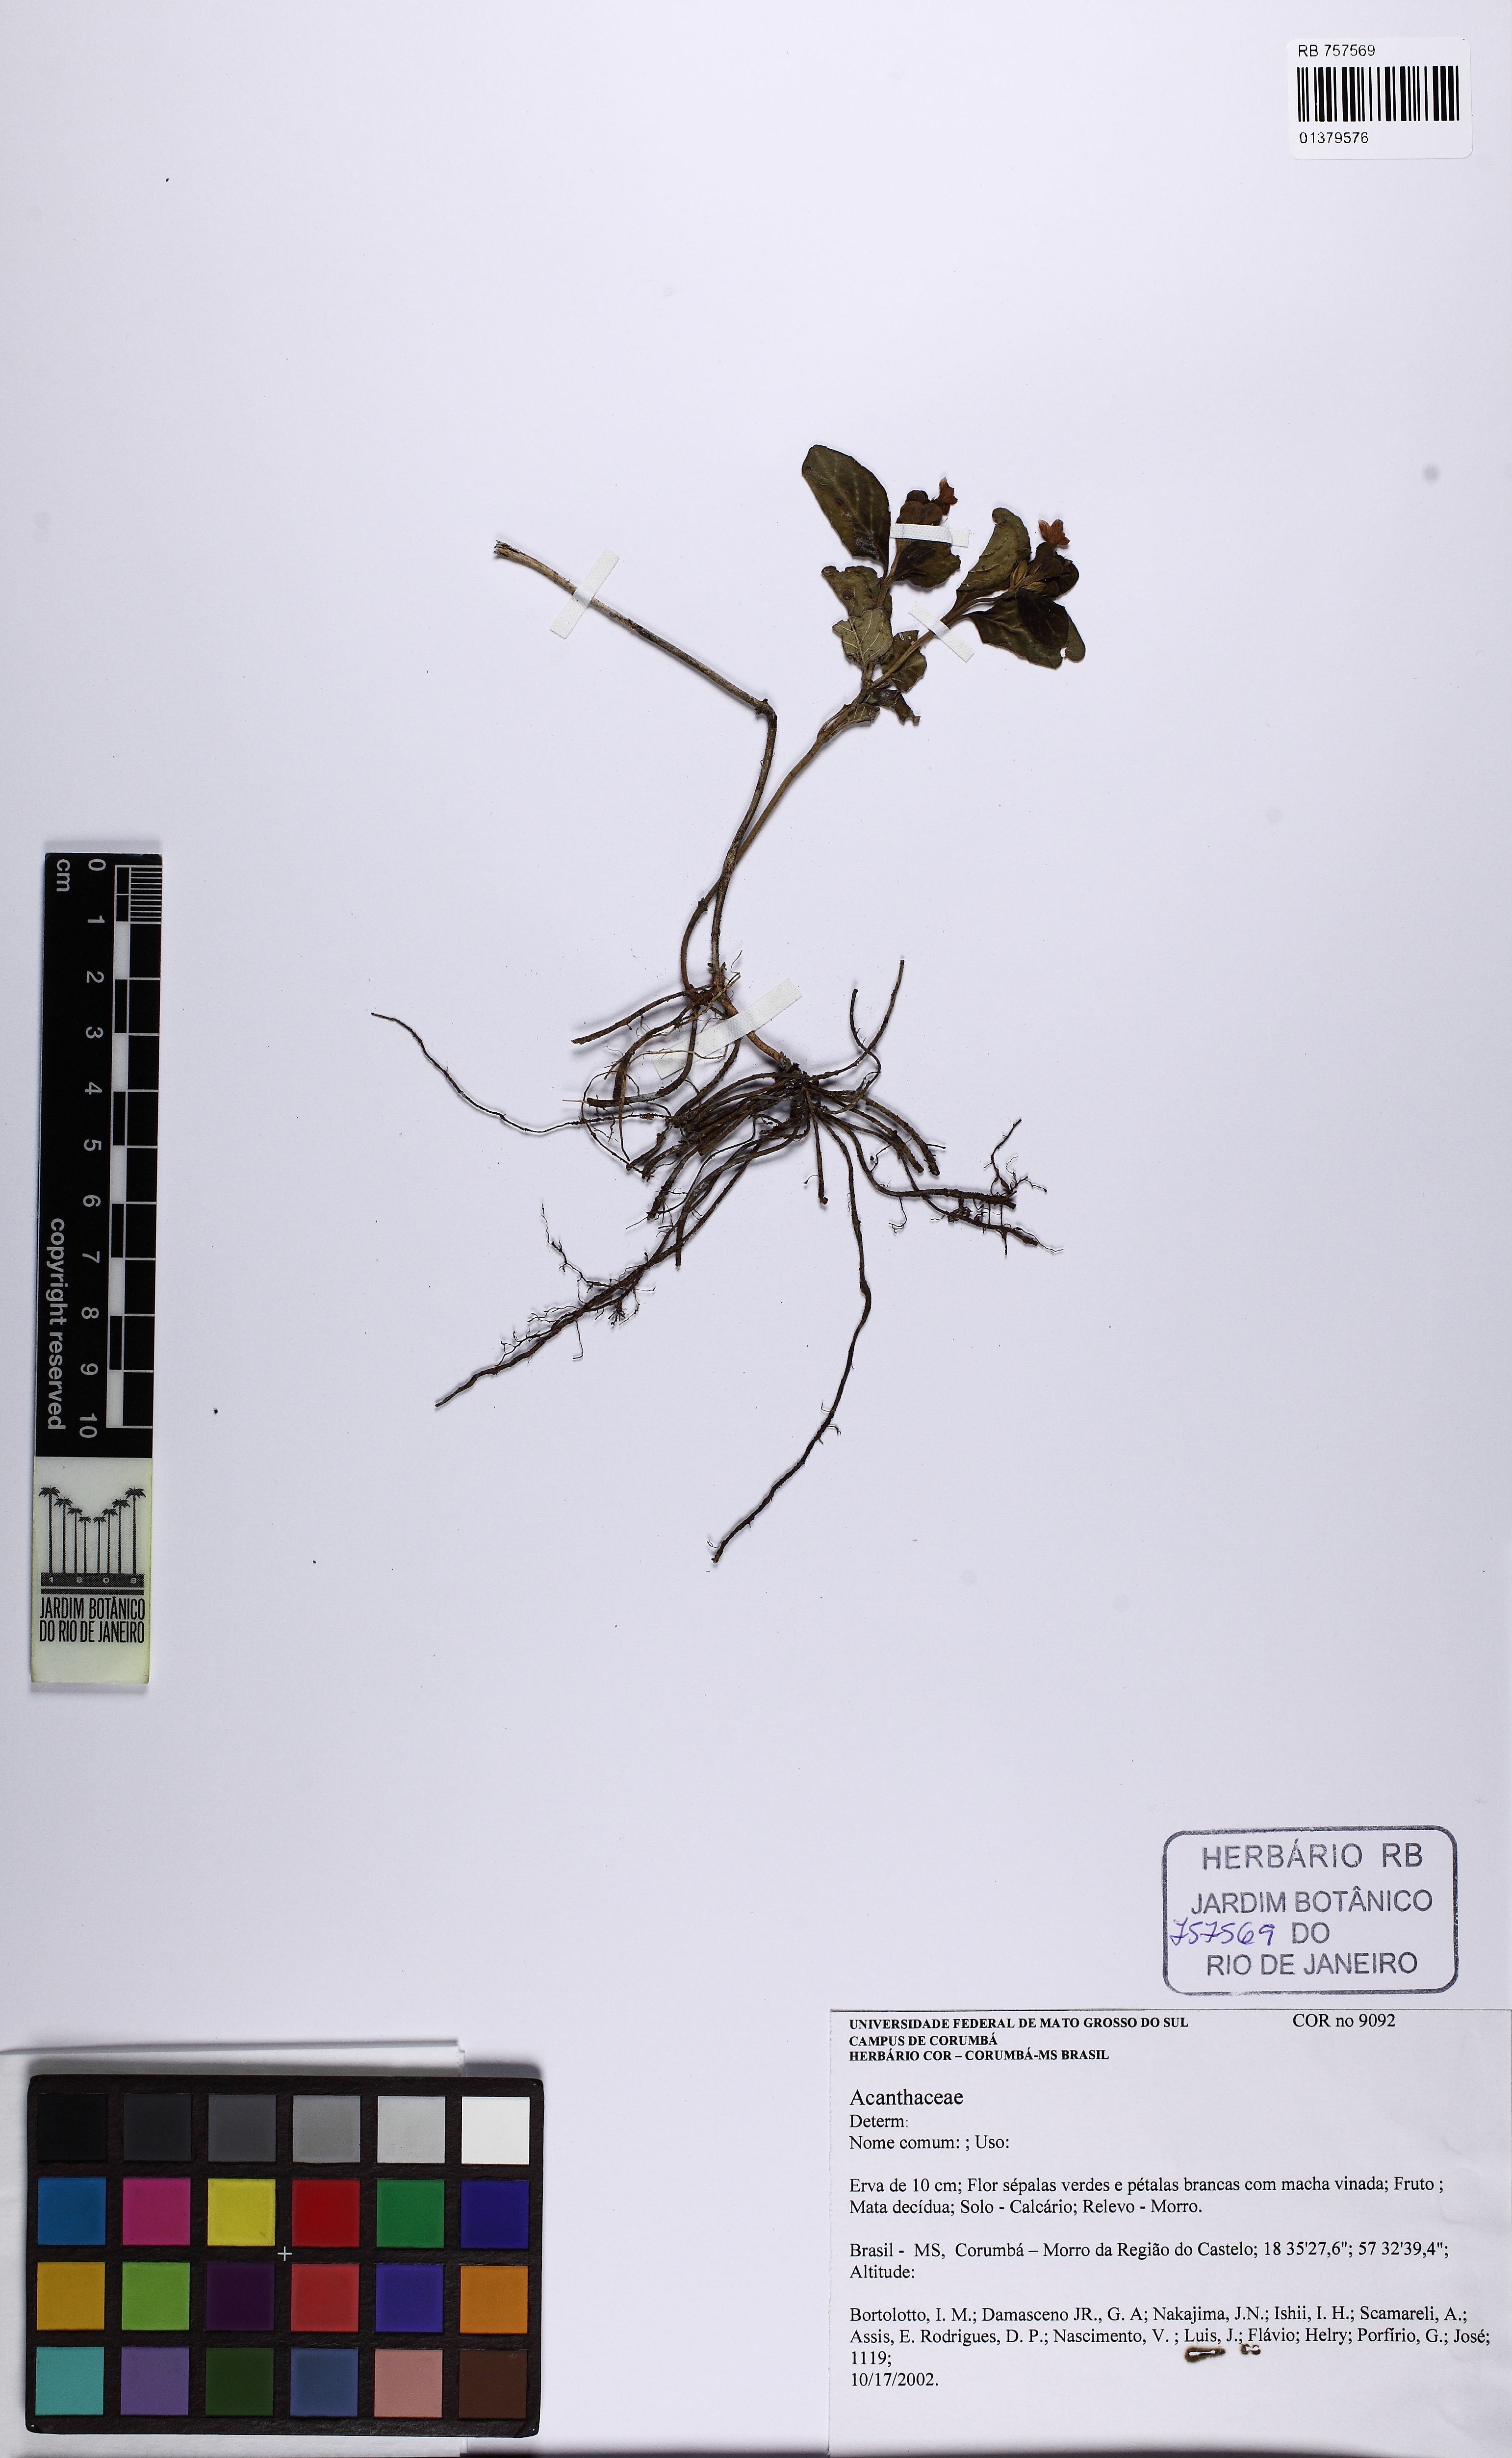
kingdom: Plantae
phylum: Tracheophyta
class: Magnoliopsida
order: Lamiales
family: Acanthaceae
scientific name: Acanthaceae
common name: Acanthaceae
